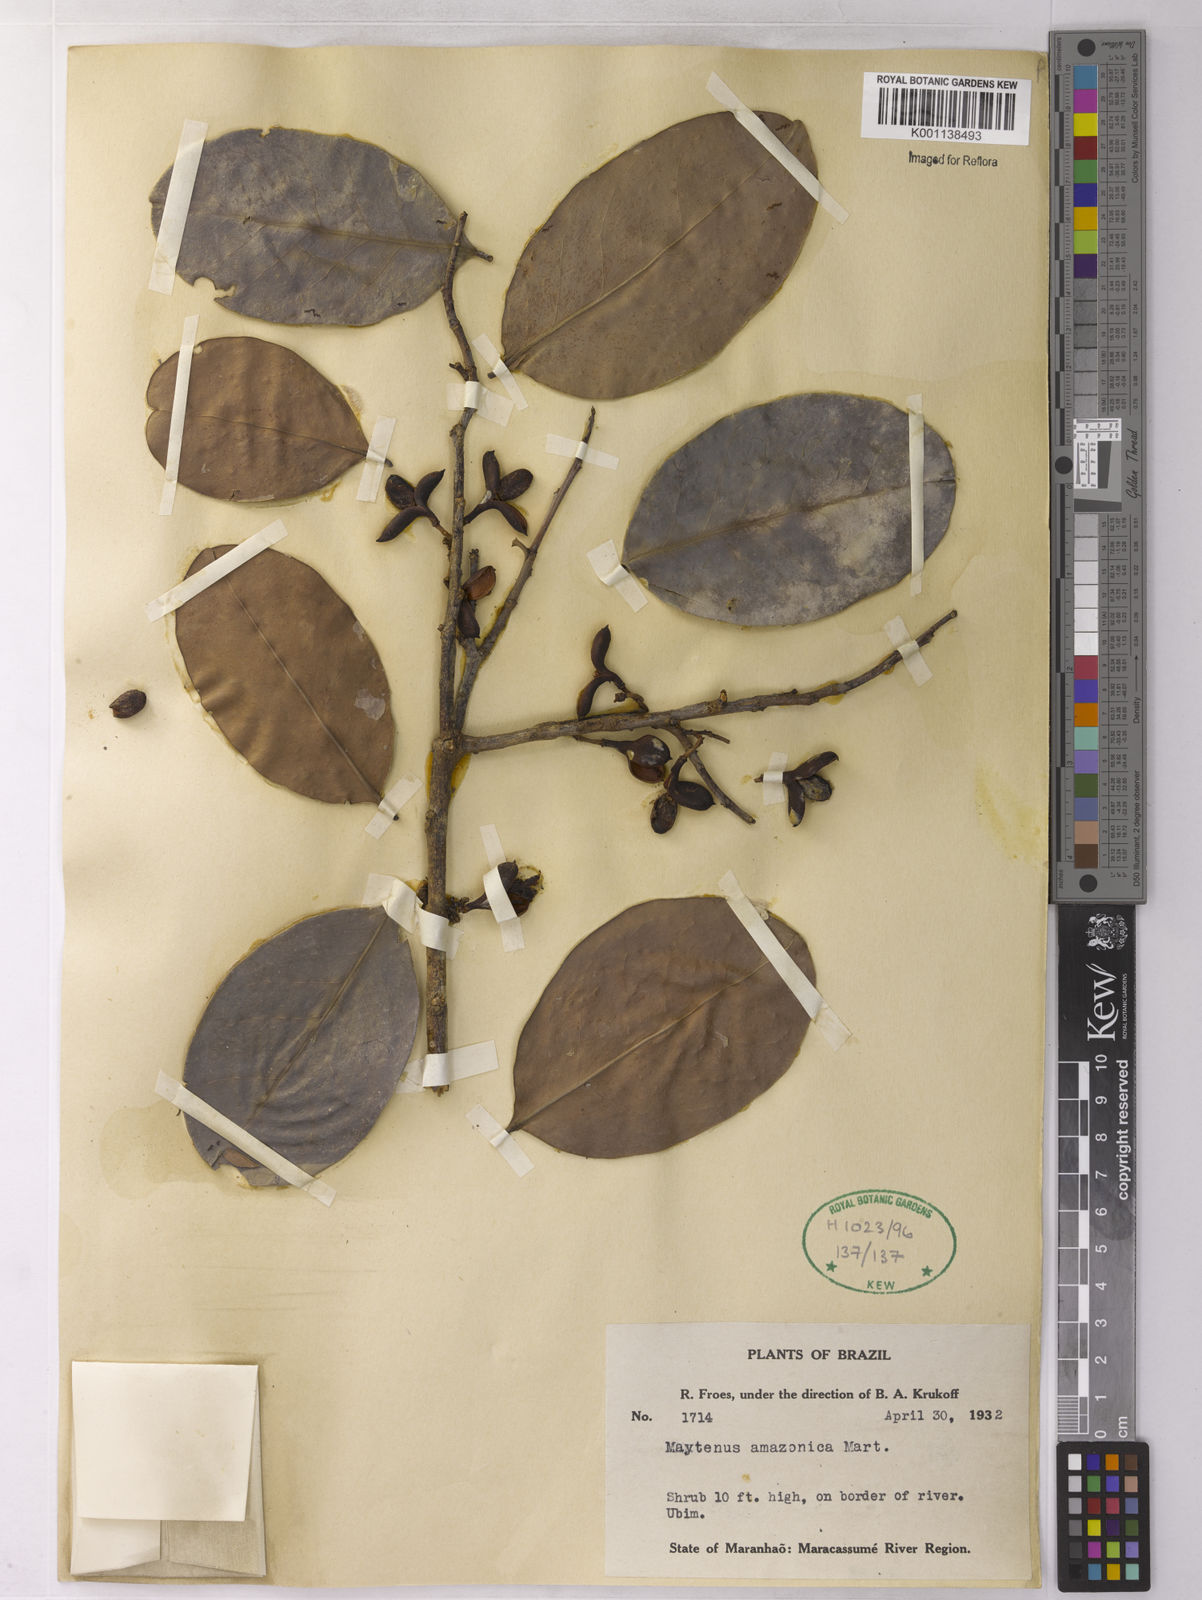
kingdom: Plantae
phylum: Tracheophyta
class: Magnoliopsida
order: Celastrales
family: Celastraceae
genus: Maytenus
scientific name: Maytenus
